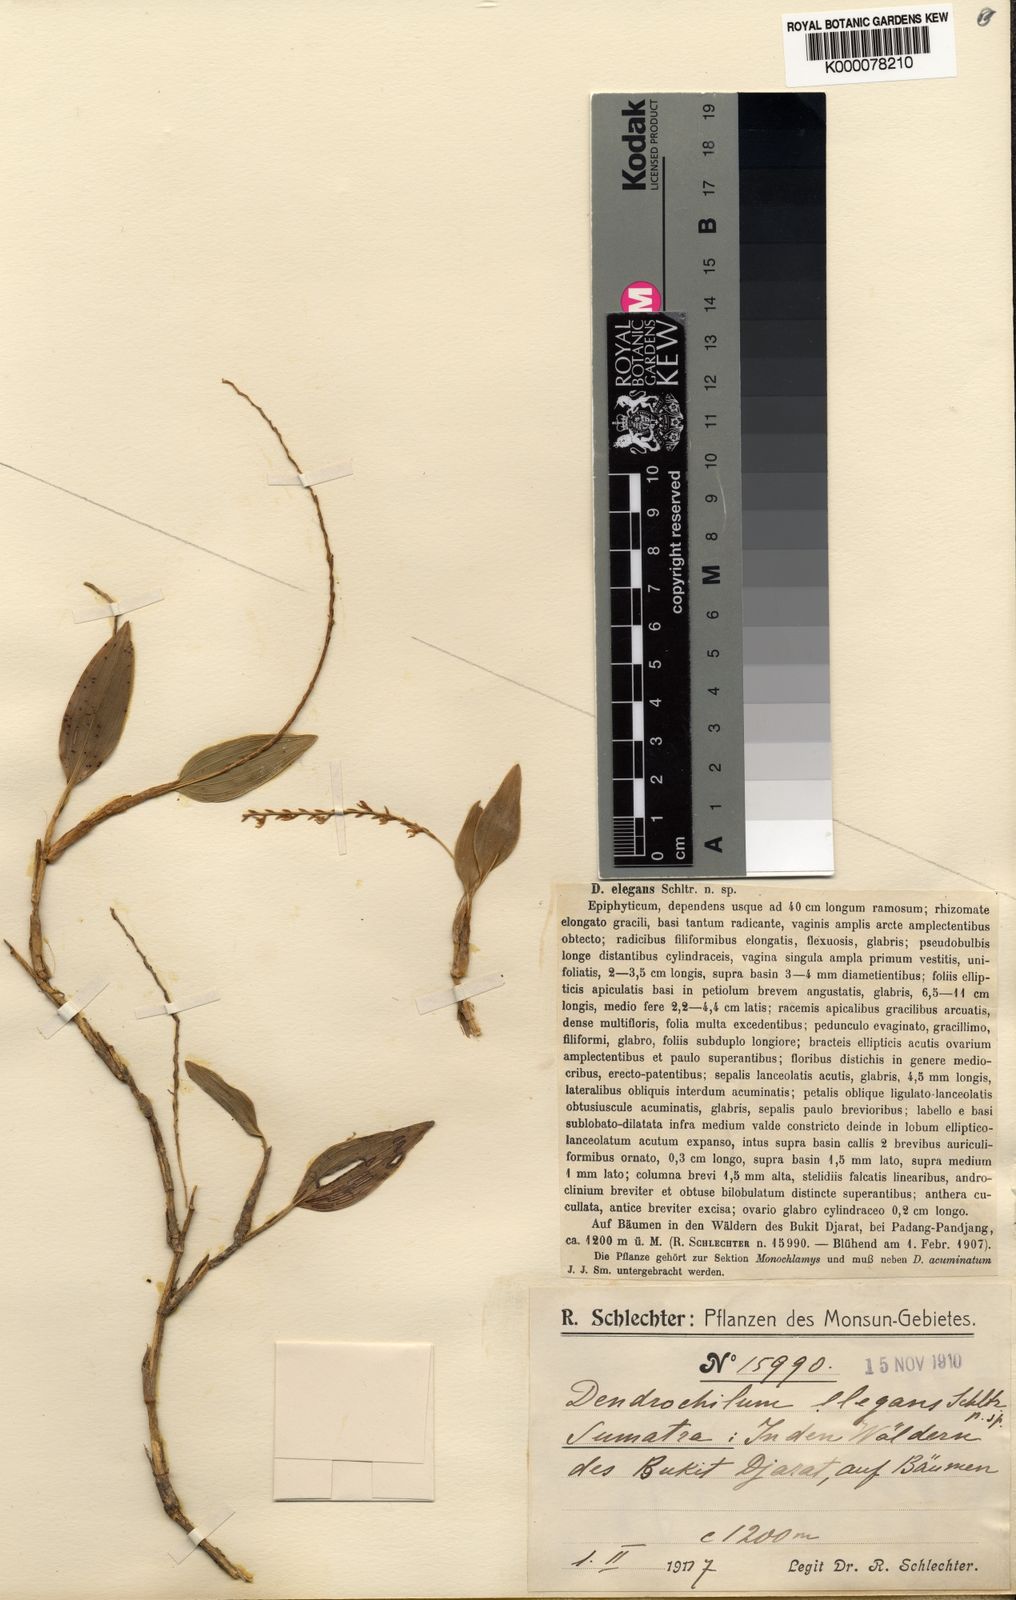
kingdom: Plantae
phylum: Tracheophyta
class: Liliopsida
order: Asparagales
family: Orchidaceae
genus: Coelogyne
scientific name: Coelogyne elegans
